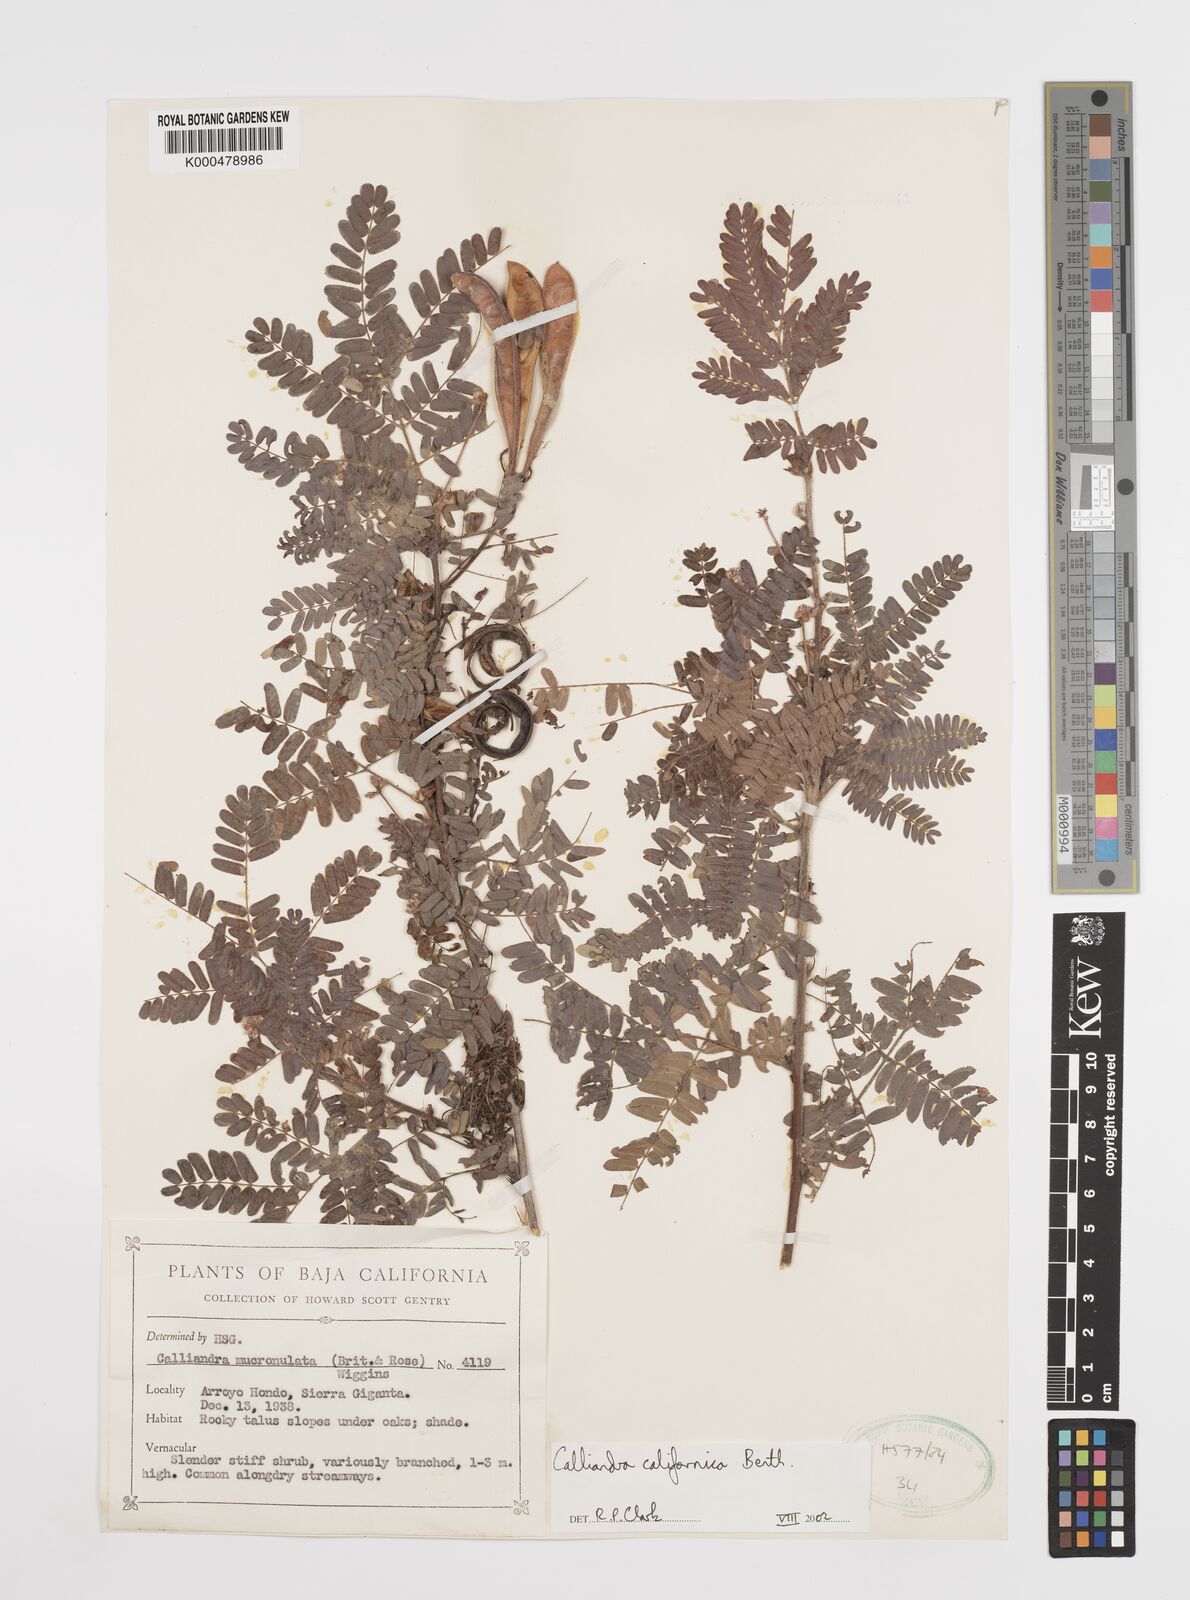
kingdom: Plantae
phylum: Tracheophyta
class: Magnoliopsida
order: Fabales
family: Fabaceae
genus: Calliandra
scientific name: Calliandra californica
